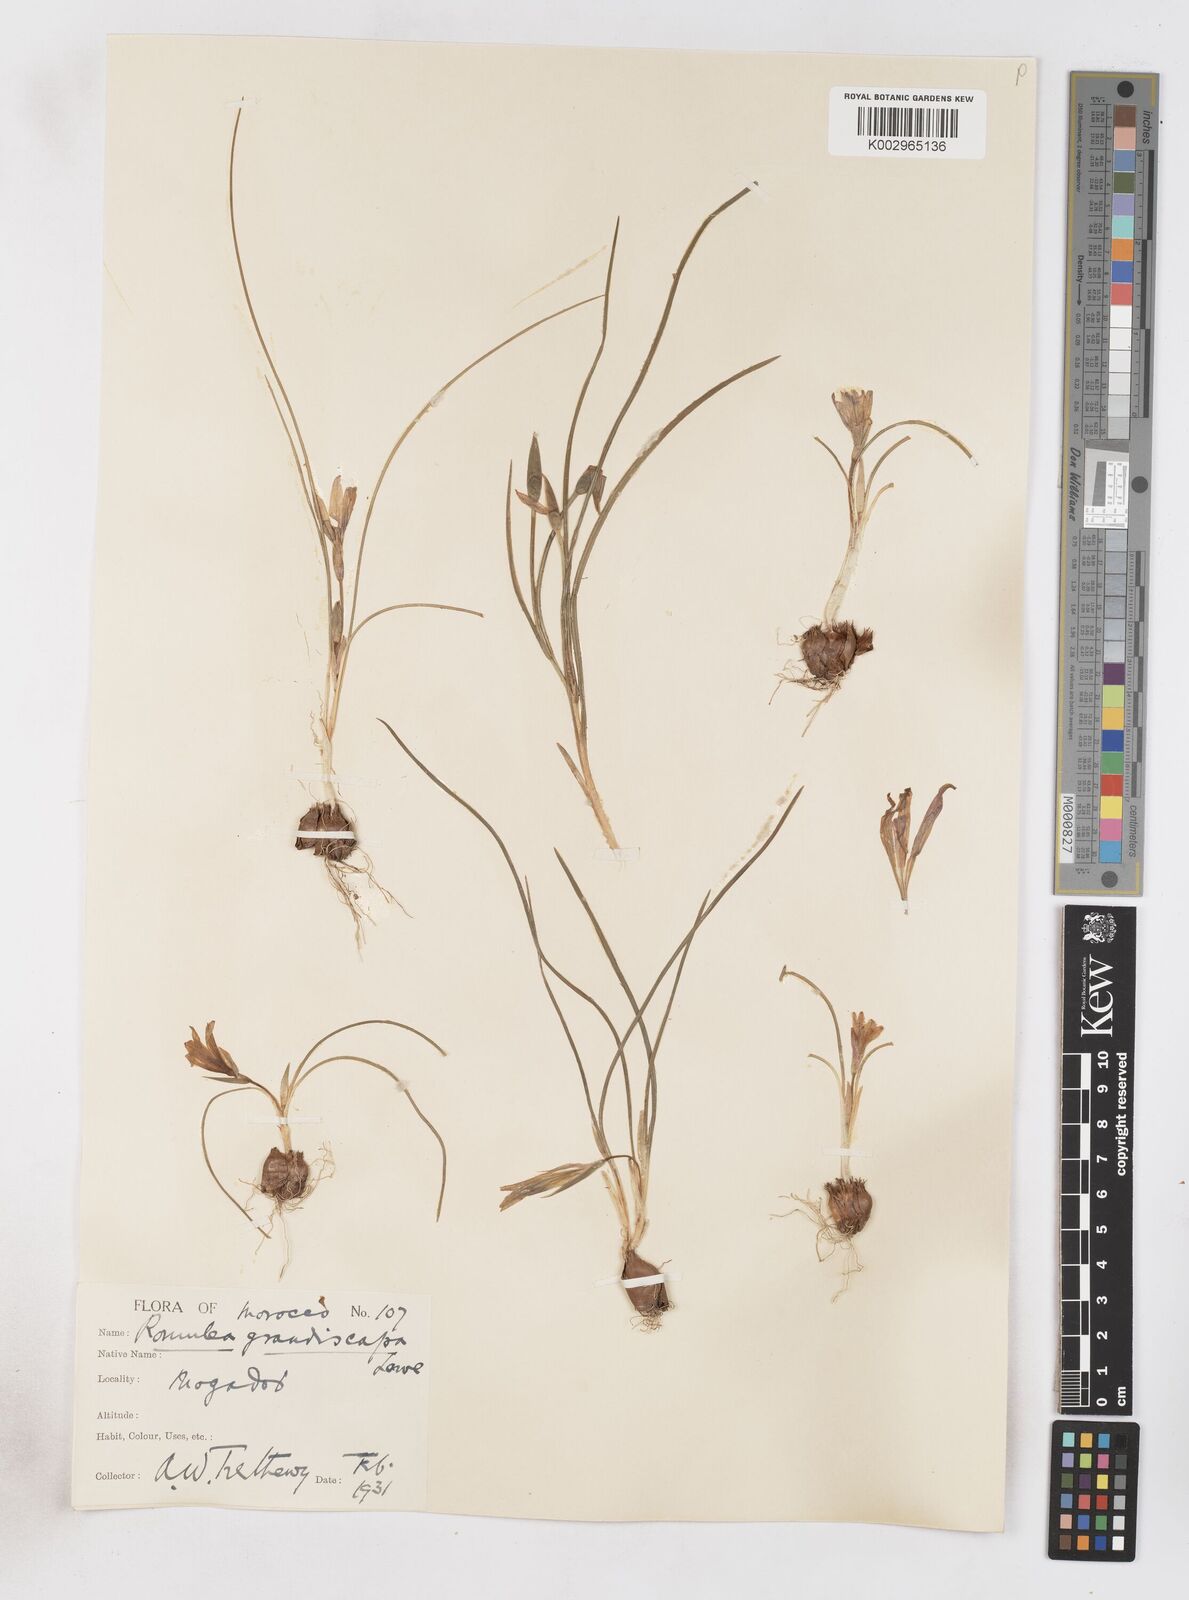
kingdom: Plantae
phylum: Tracheophyta
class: Liliopsida
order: Asparagales
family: Iridaceae
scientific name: Iridaceae
